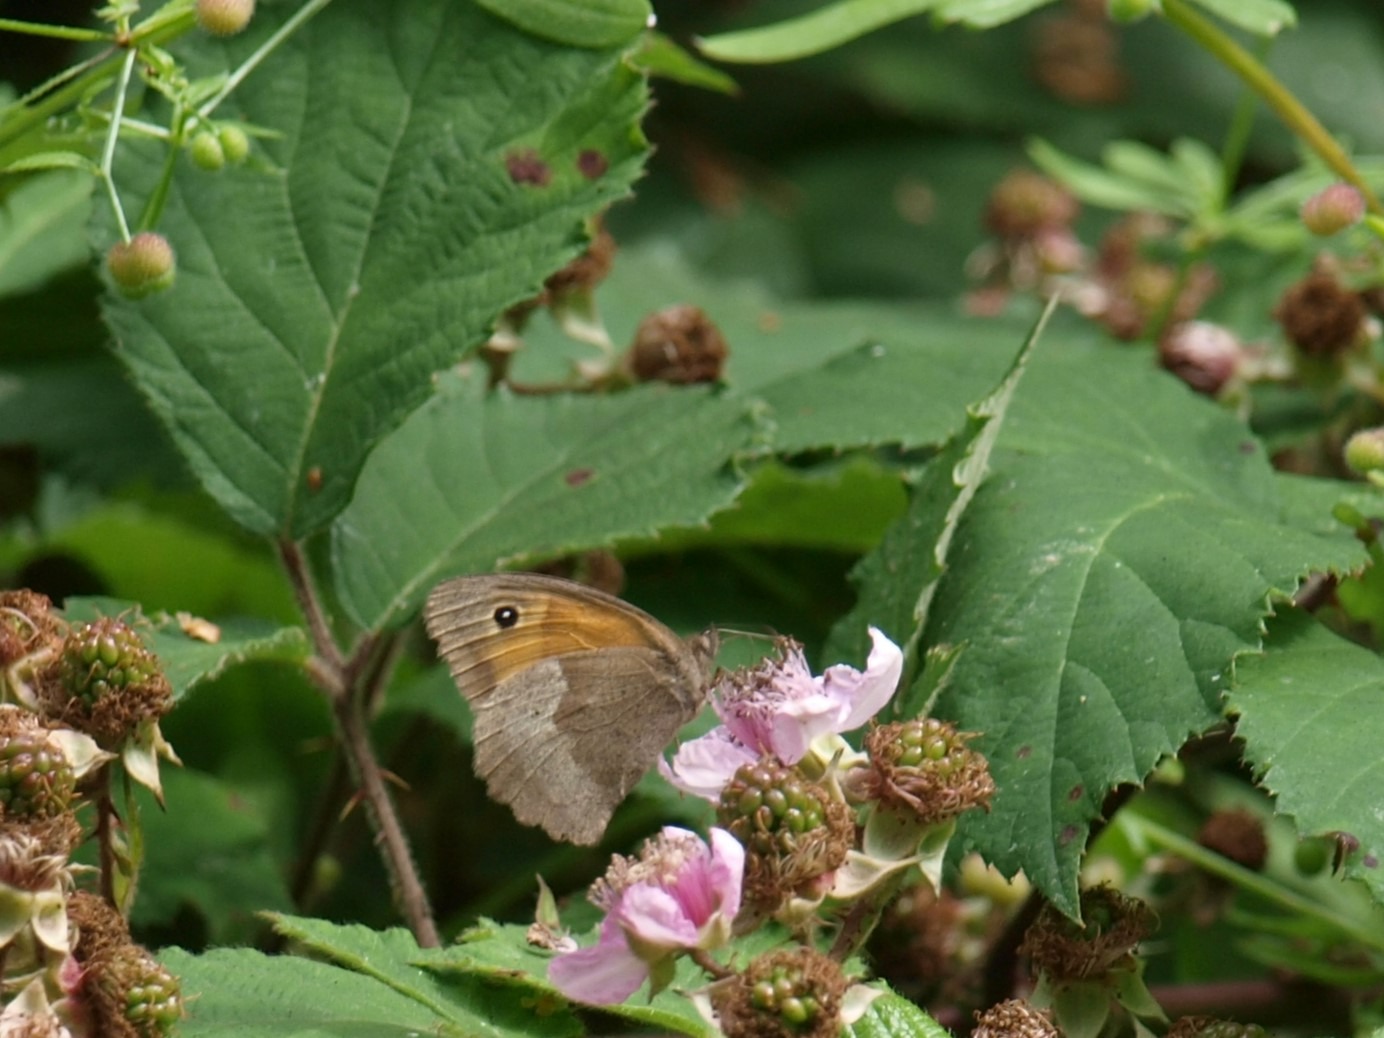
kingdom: Animalia
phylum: Arthropoda
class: Insecta
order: Lepidoptera
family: Nymphalidae
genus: Maniola
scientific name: Maniola jurtina
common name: Græsrandøje
